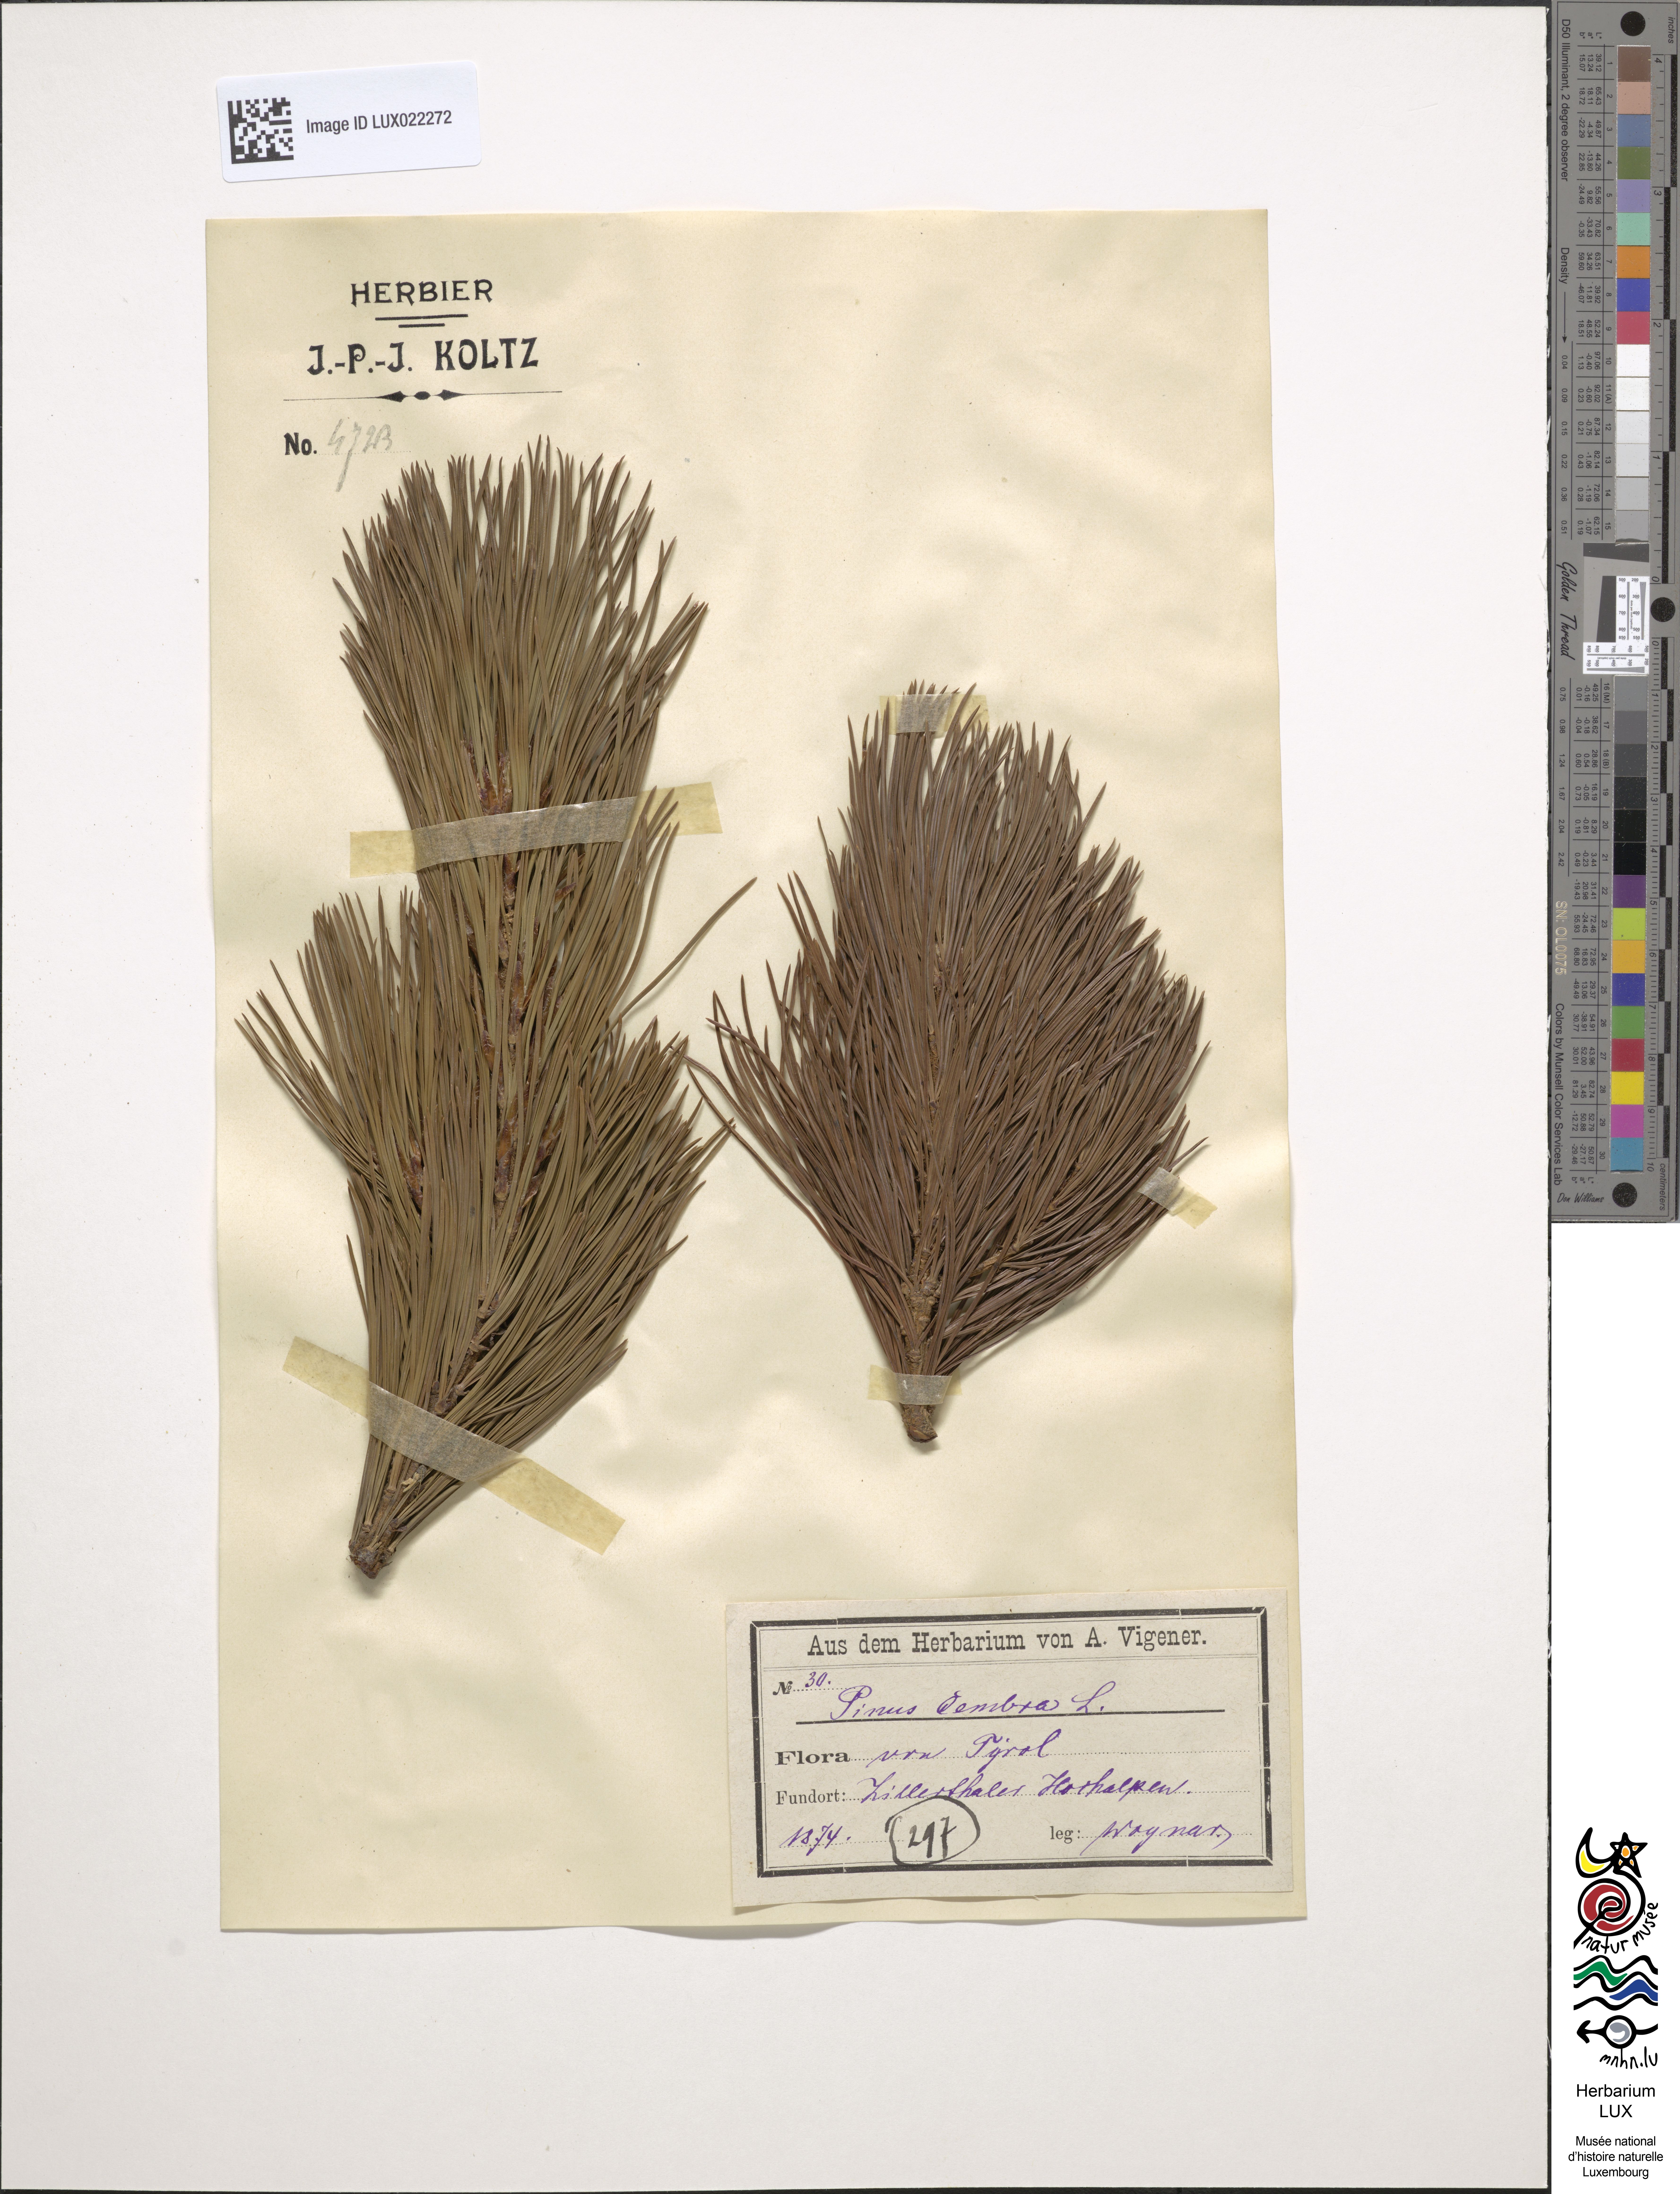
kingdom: Plantae
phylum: Tracheophyta
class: Pinopsida
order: Pinales
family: Pinaceae
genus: Pinus
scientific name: Pinus cembra
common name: Arolla pine
